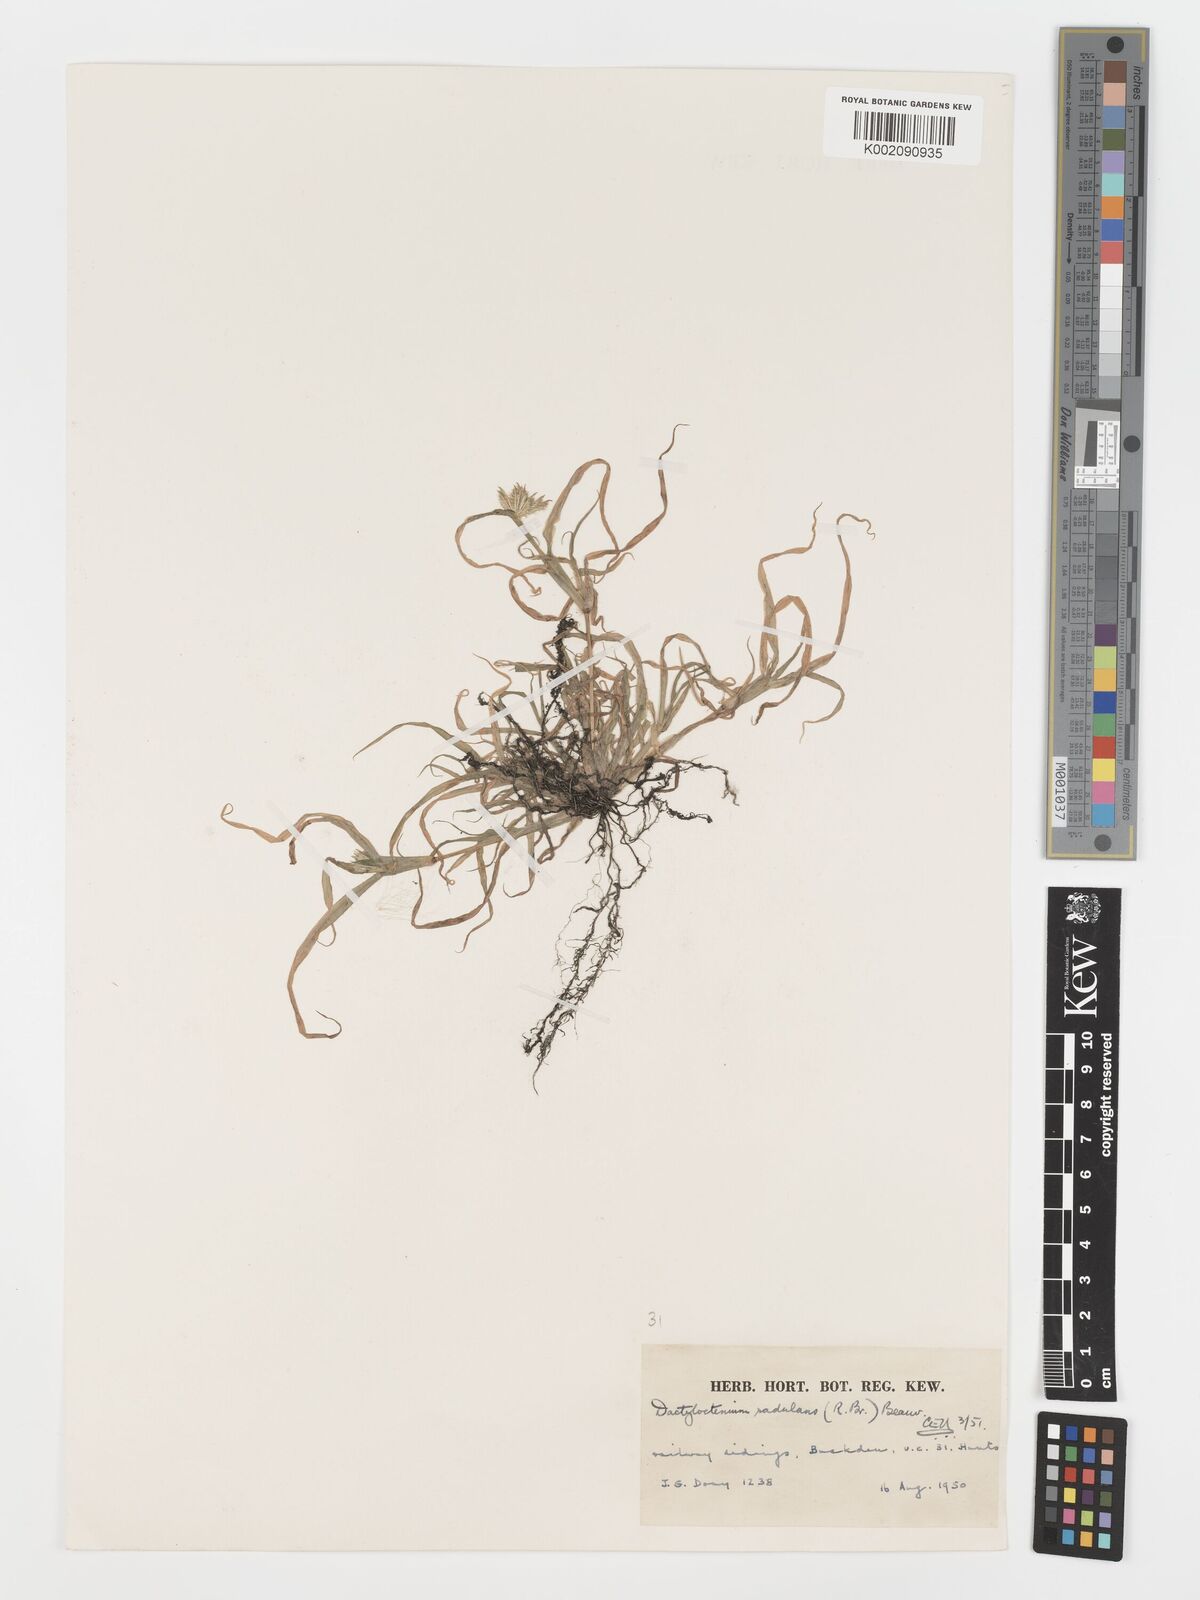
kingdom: Plantae
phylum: Tracheophyta
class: Liliopsida
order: Poales
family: Poaceae
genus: Dactyloctenium
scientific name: Dactyloctenium radulans
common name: Button-grass
